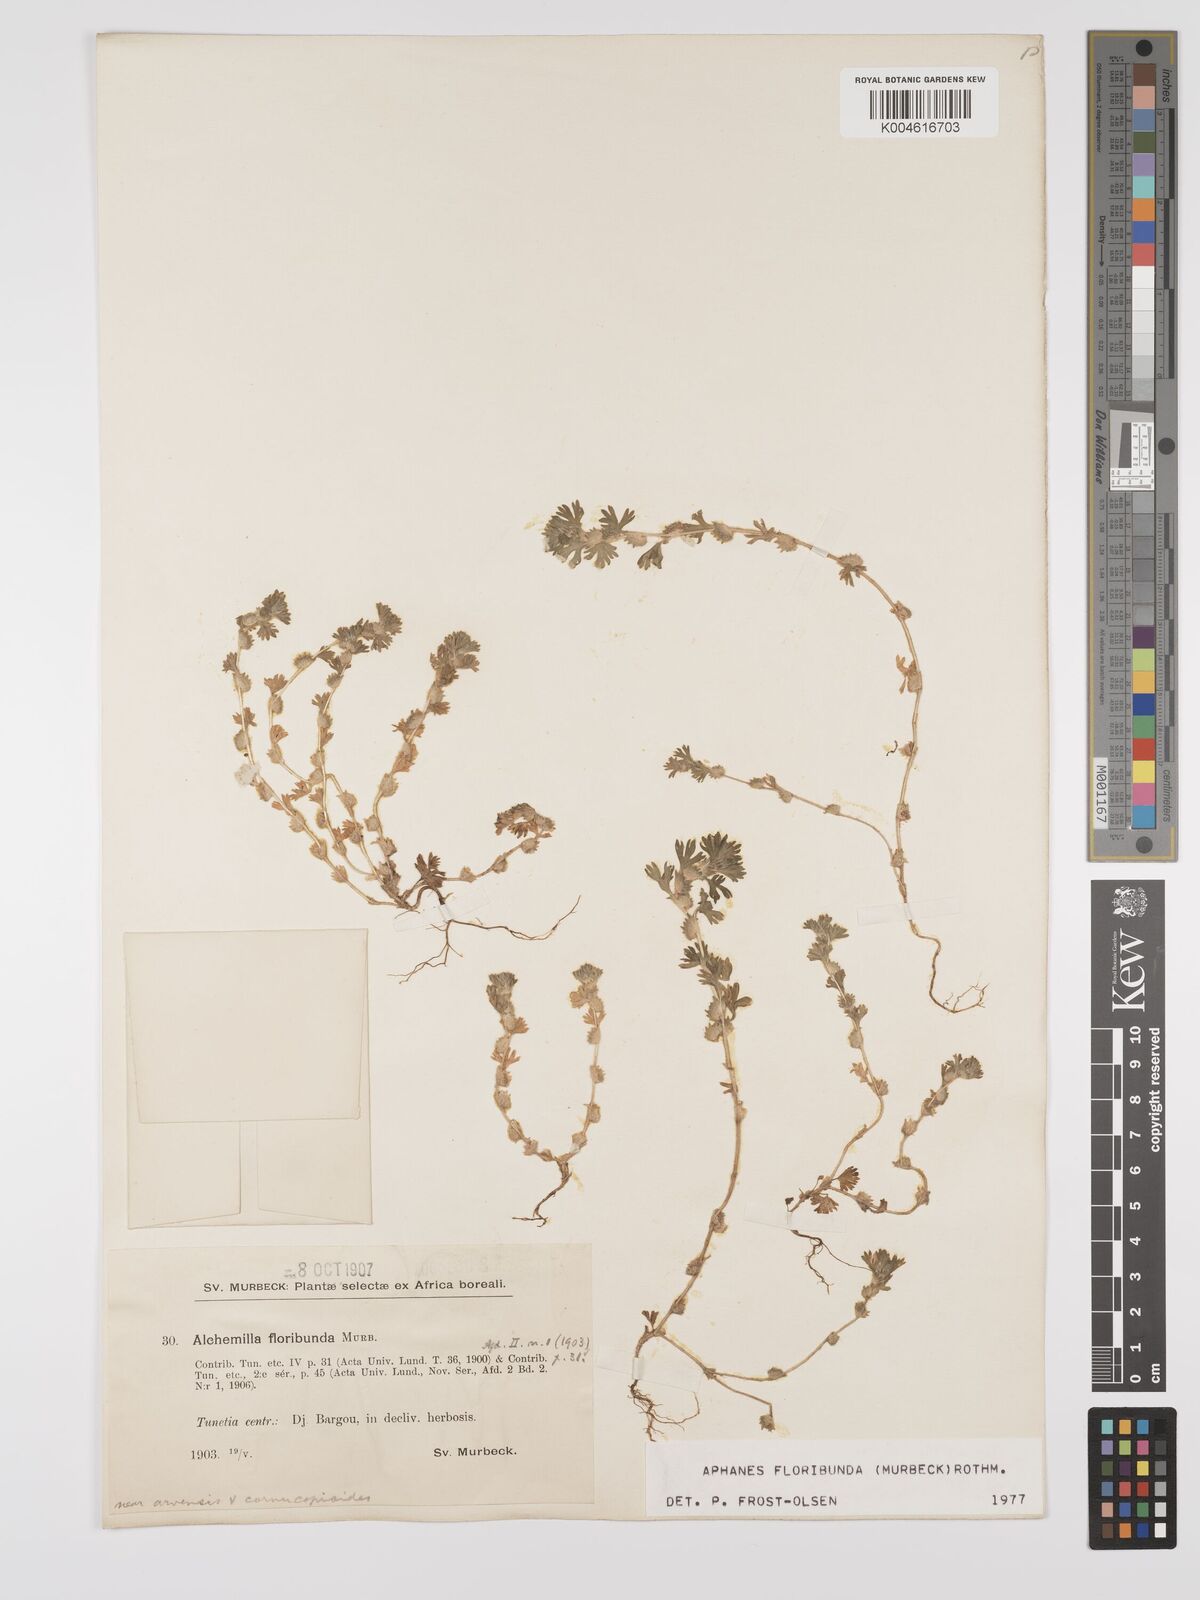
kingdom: Plantae
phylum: Tracheophyta
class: Magnoliopsida
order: Rosales
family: Rosaceae
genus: Aphanes
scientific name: Aphanes floribunda
